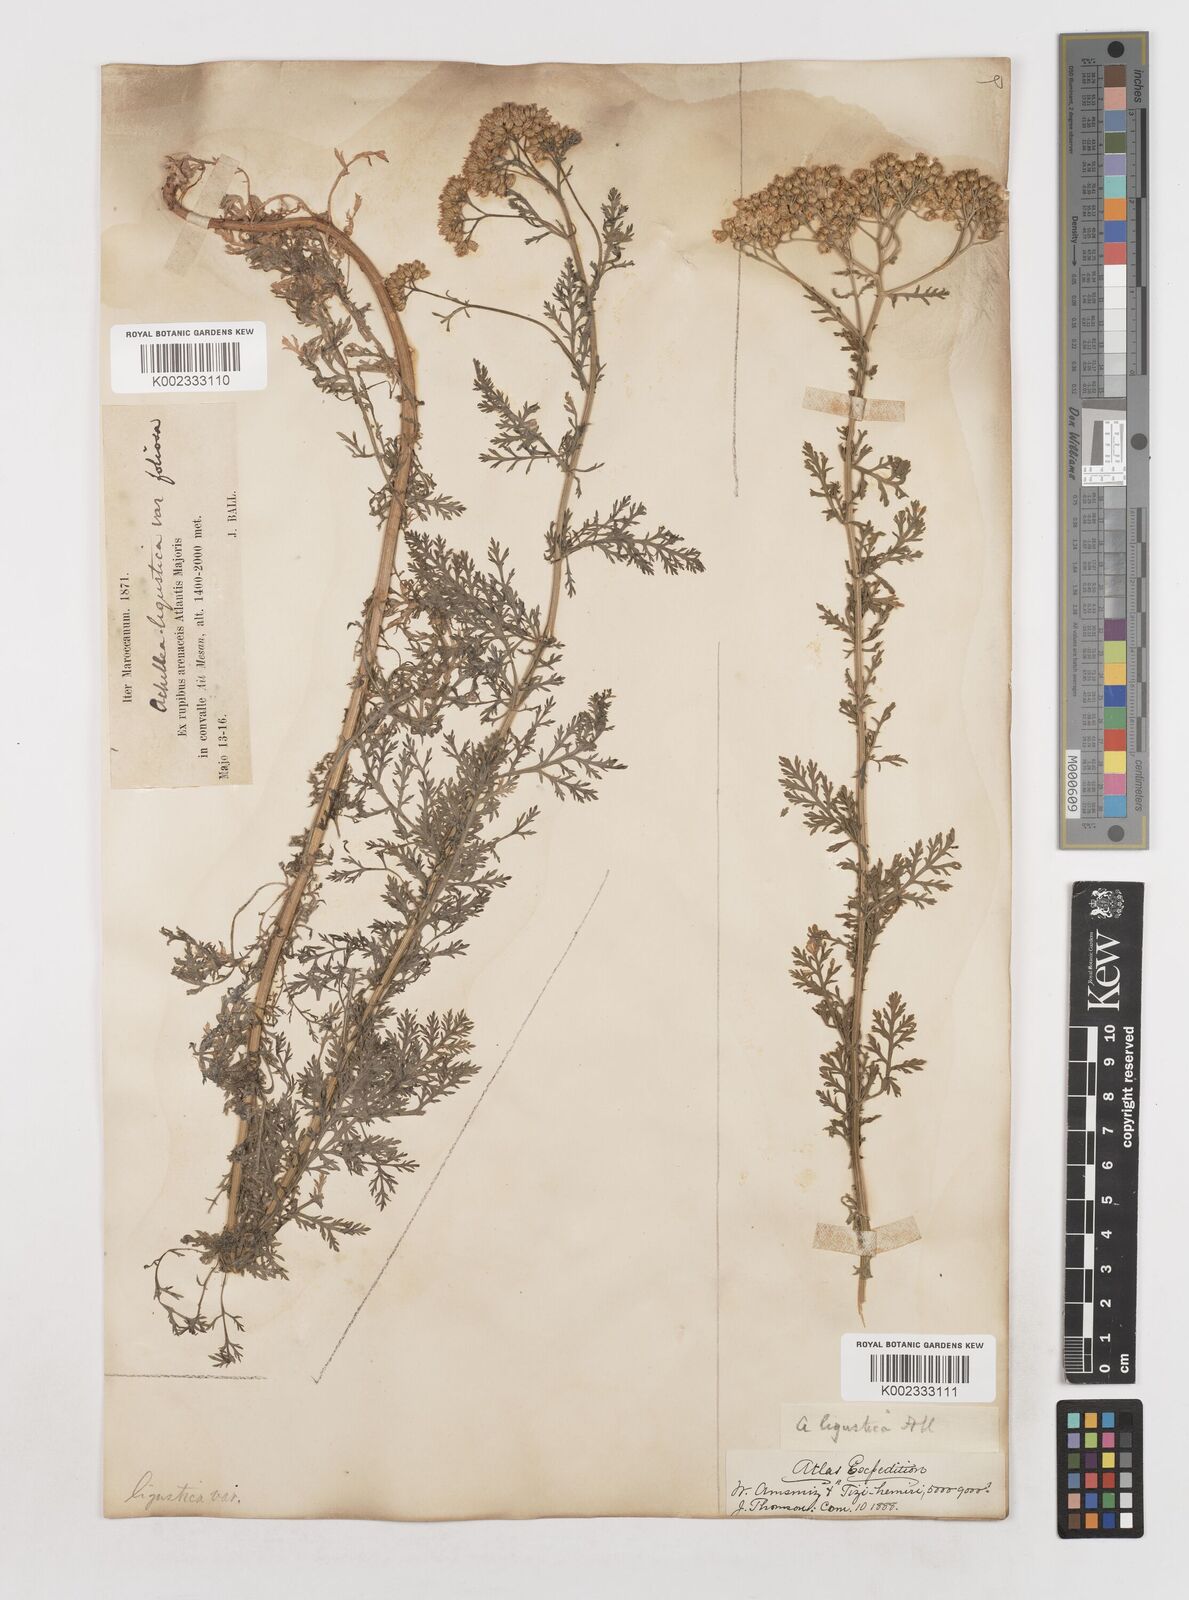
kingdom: Plantae
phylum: Tracheophyta
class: Magnoliopsida
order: Asterales
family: Asteraceae
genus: Achillea
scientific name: Achillea ligustica
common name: Southern yarrow
